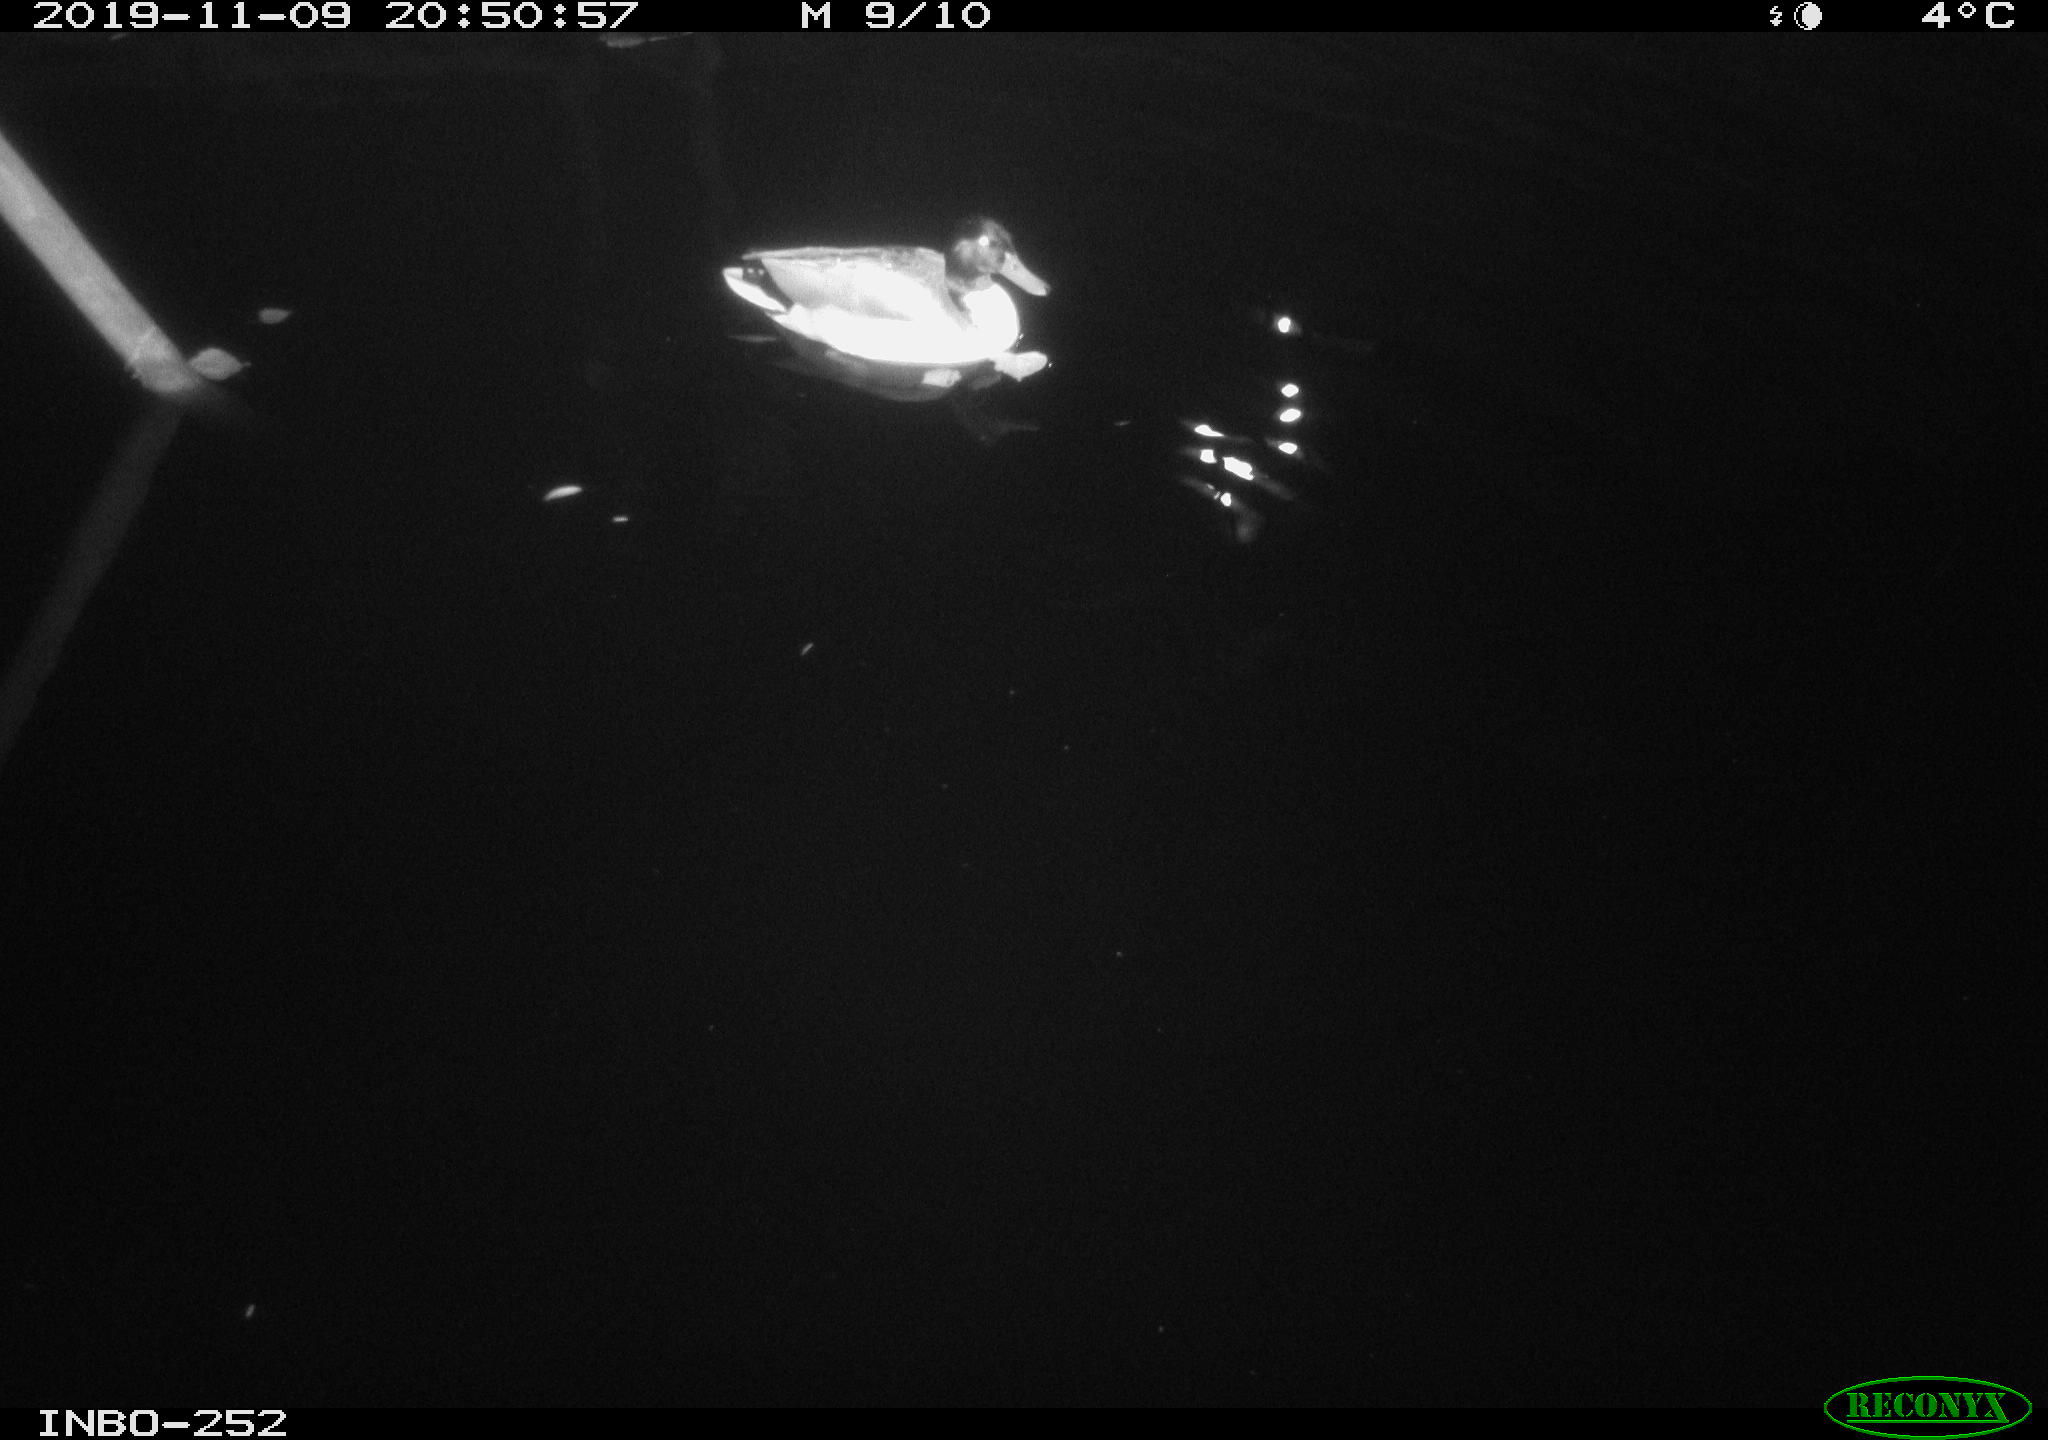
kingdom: Animalia
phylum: Chordata
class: Aves
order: Anseriformes
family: Anatidae
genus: Anas
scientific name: Anas platyrhynchos
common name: Mallard
